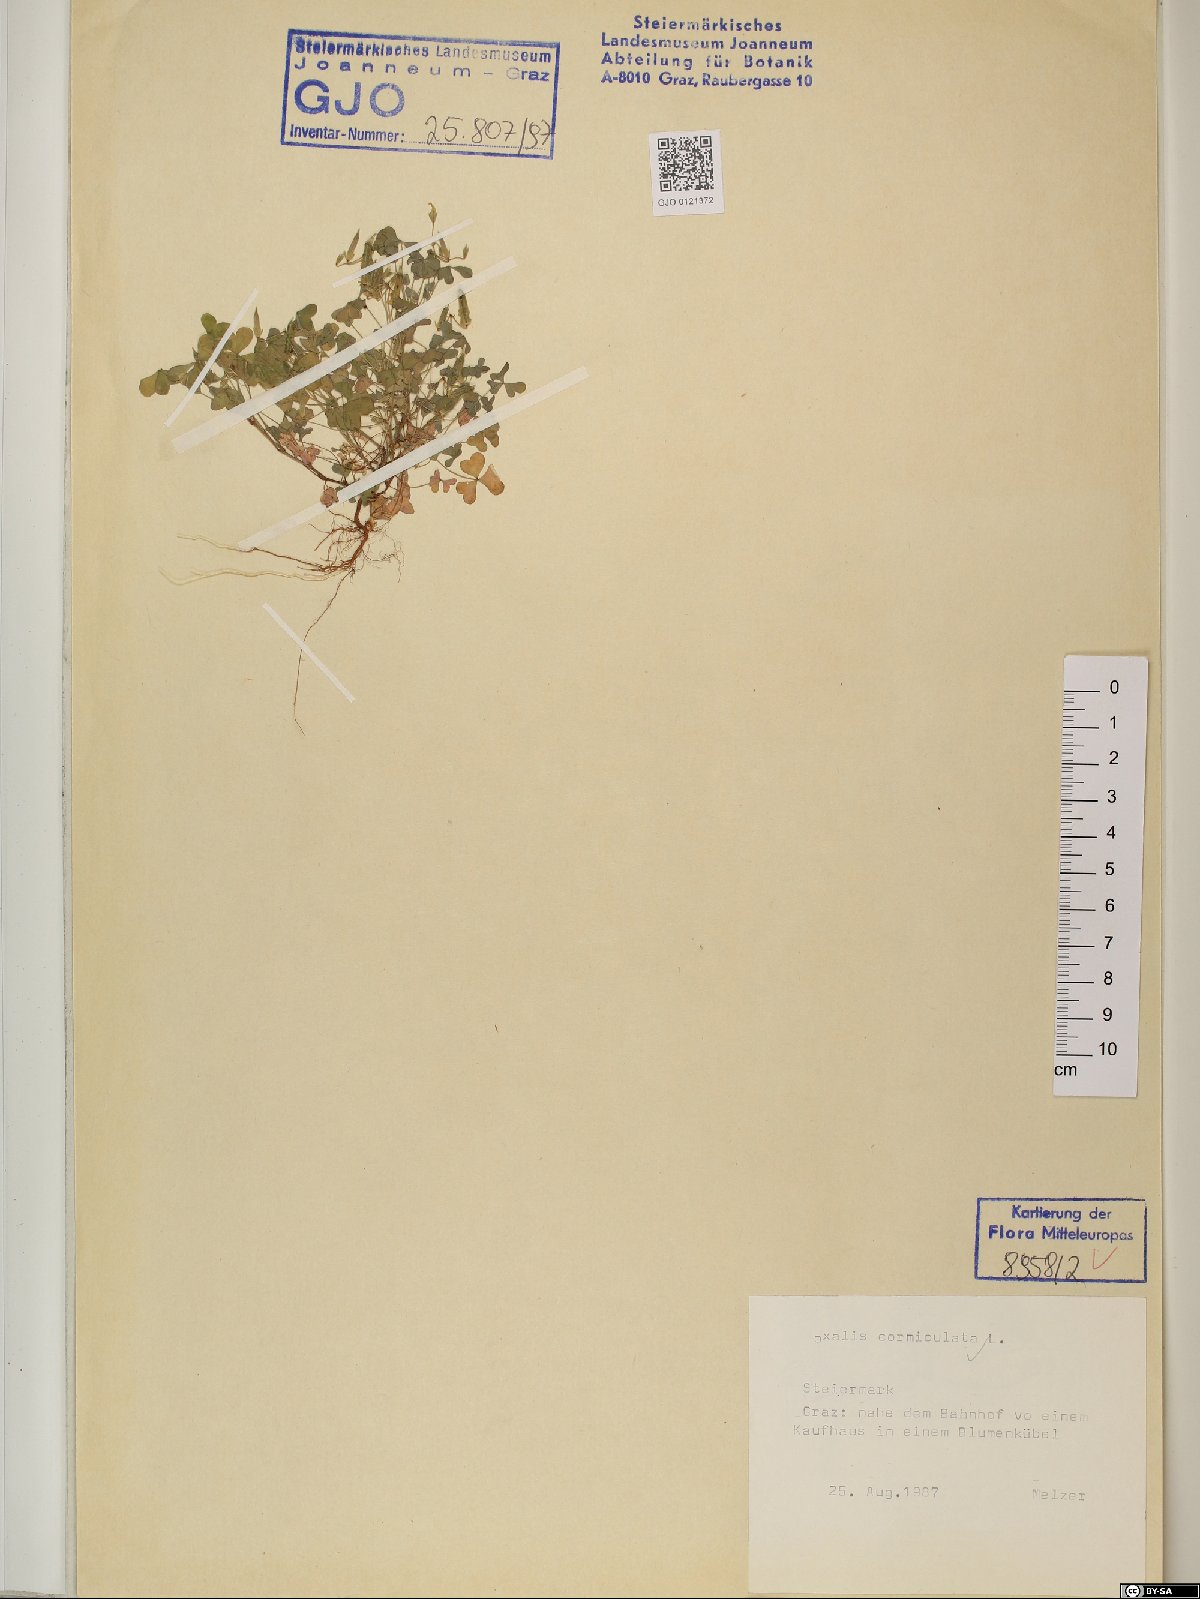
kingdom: Plantae
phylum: Tracheophyta
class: Magnoliopsida
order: Oxalidales
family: Oxalidaceae
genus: Oxalis
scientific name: Oxalis corniculata
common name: Procumbent yellow-sorrel
